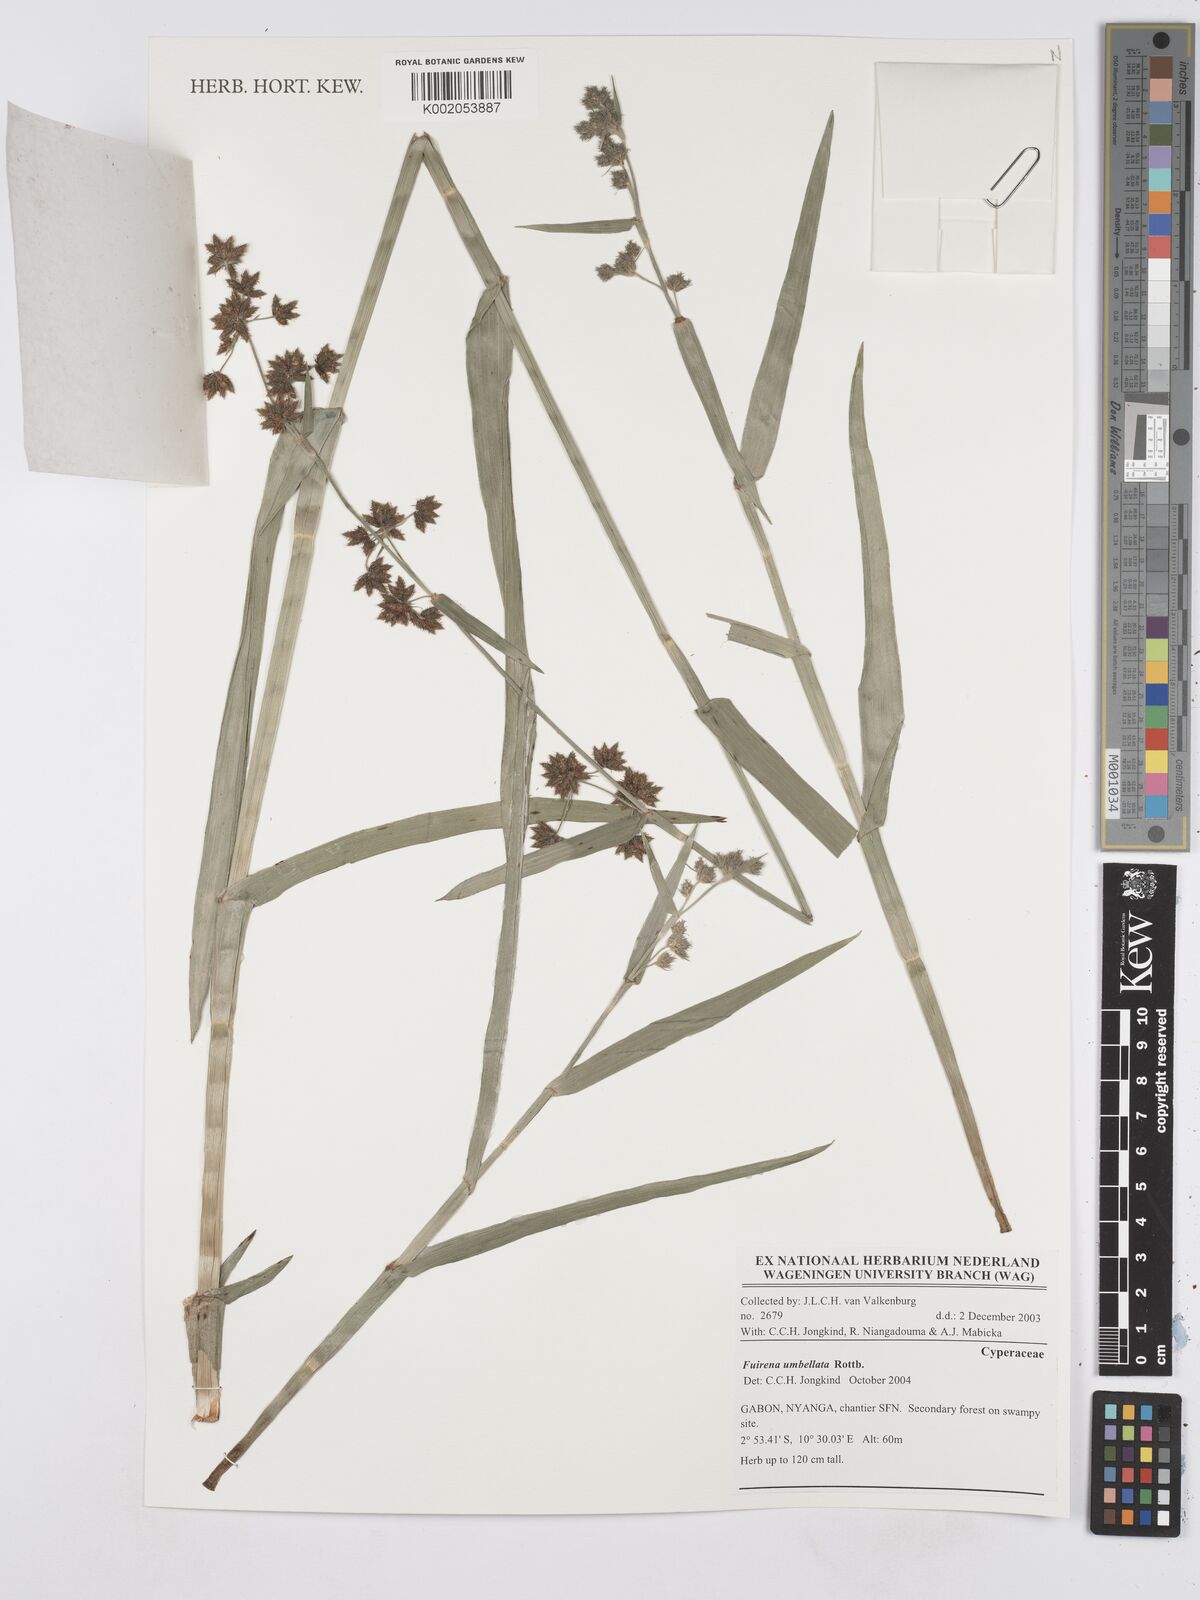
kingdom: Plantae
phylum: Tracheophyta
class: Liliopsida
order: Poales
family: Cyperaceae
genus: Fuirena
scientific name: Fuirena umbellata
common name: Yefen
